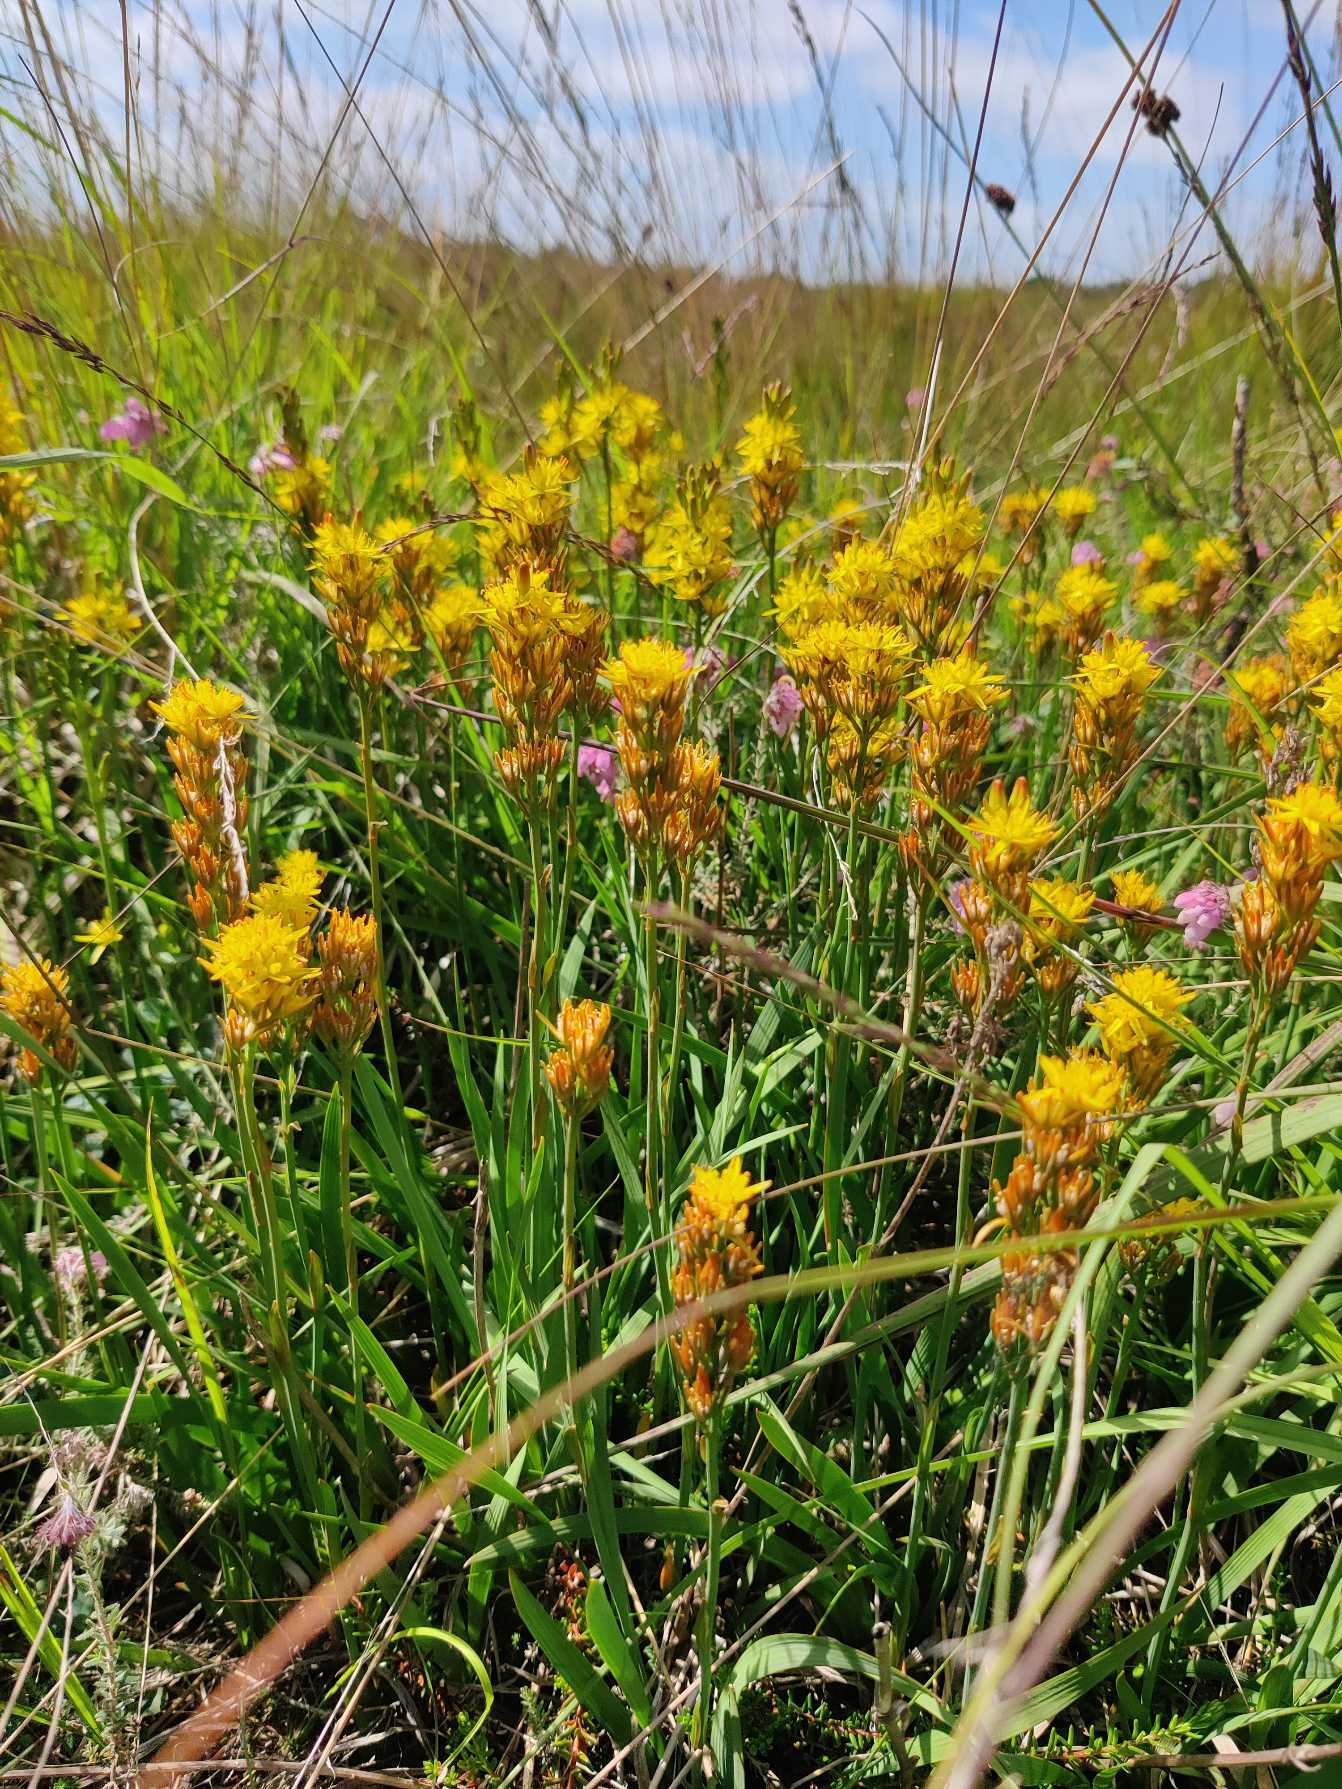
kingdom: Plantae
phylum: Tracheophyta
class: Liliopsida
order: Dioscoreales
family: Nartheciaceae
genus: Narthecium
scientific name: Narthecium ossifragum
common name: Benbræk
